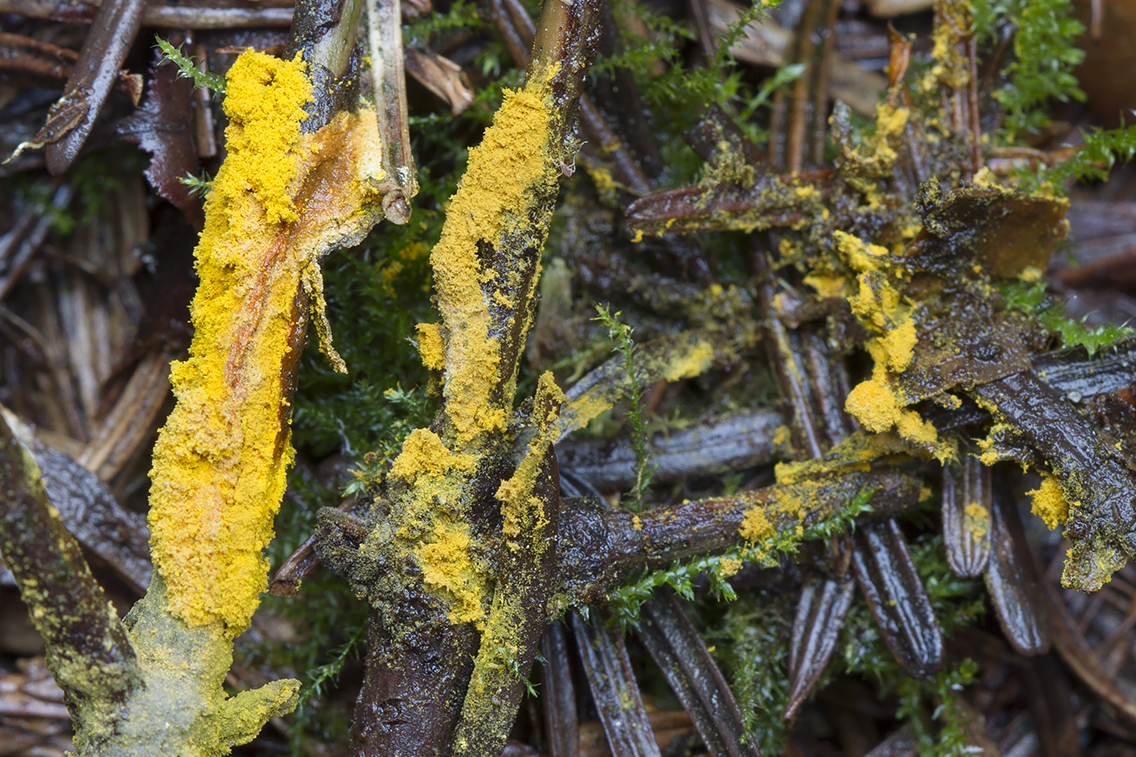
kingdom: Fungi
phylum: Ascomycota
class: Sordariomycetes
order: Hypocreales
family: Hypocreaceae
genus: Hypomyces
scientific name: Hypomyces
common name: snylteskorpe
